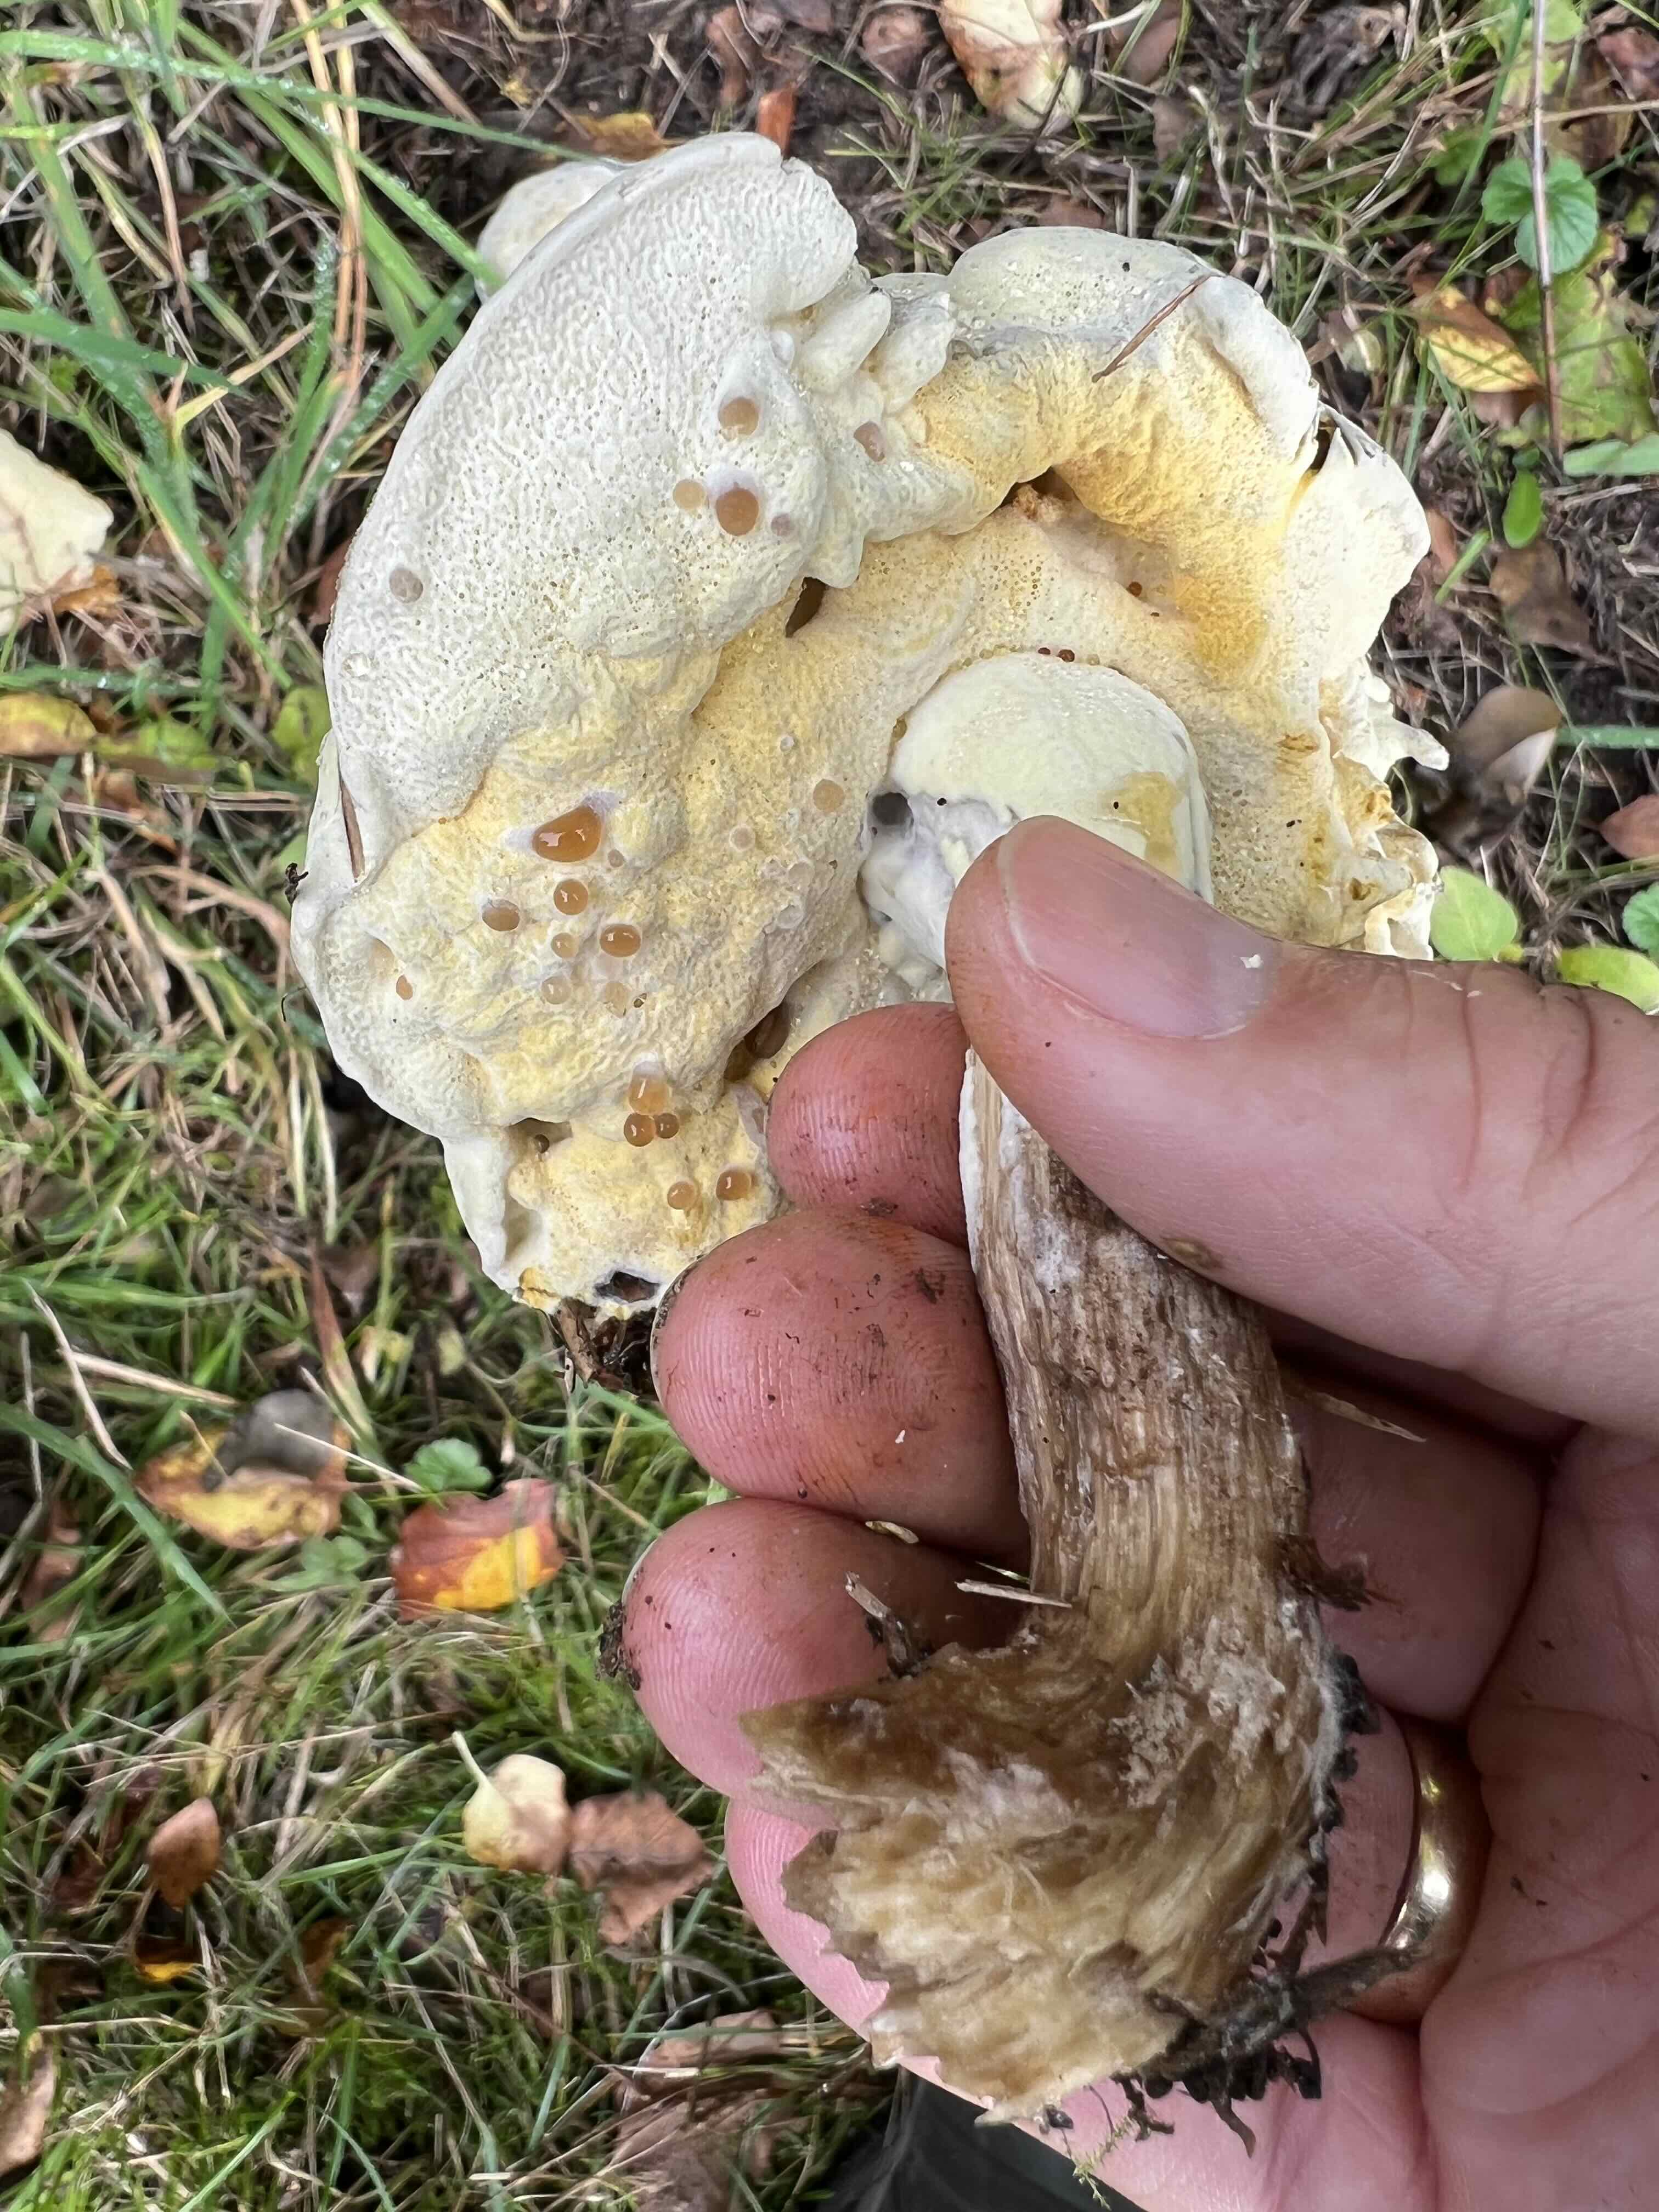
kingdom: Fungi
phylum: Ascomycota
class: Sordariomycetes
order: Hypocreales
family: Hypocreaceae
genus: Hypomyces
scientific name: Hypomyces
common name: snylteskorpe
